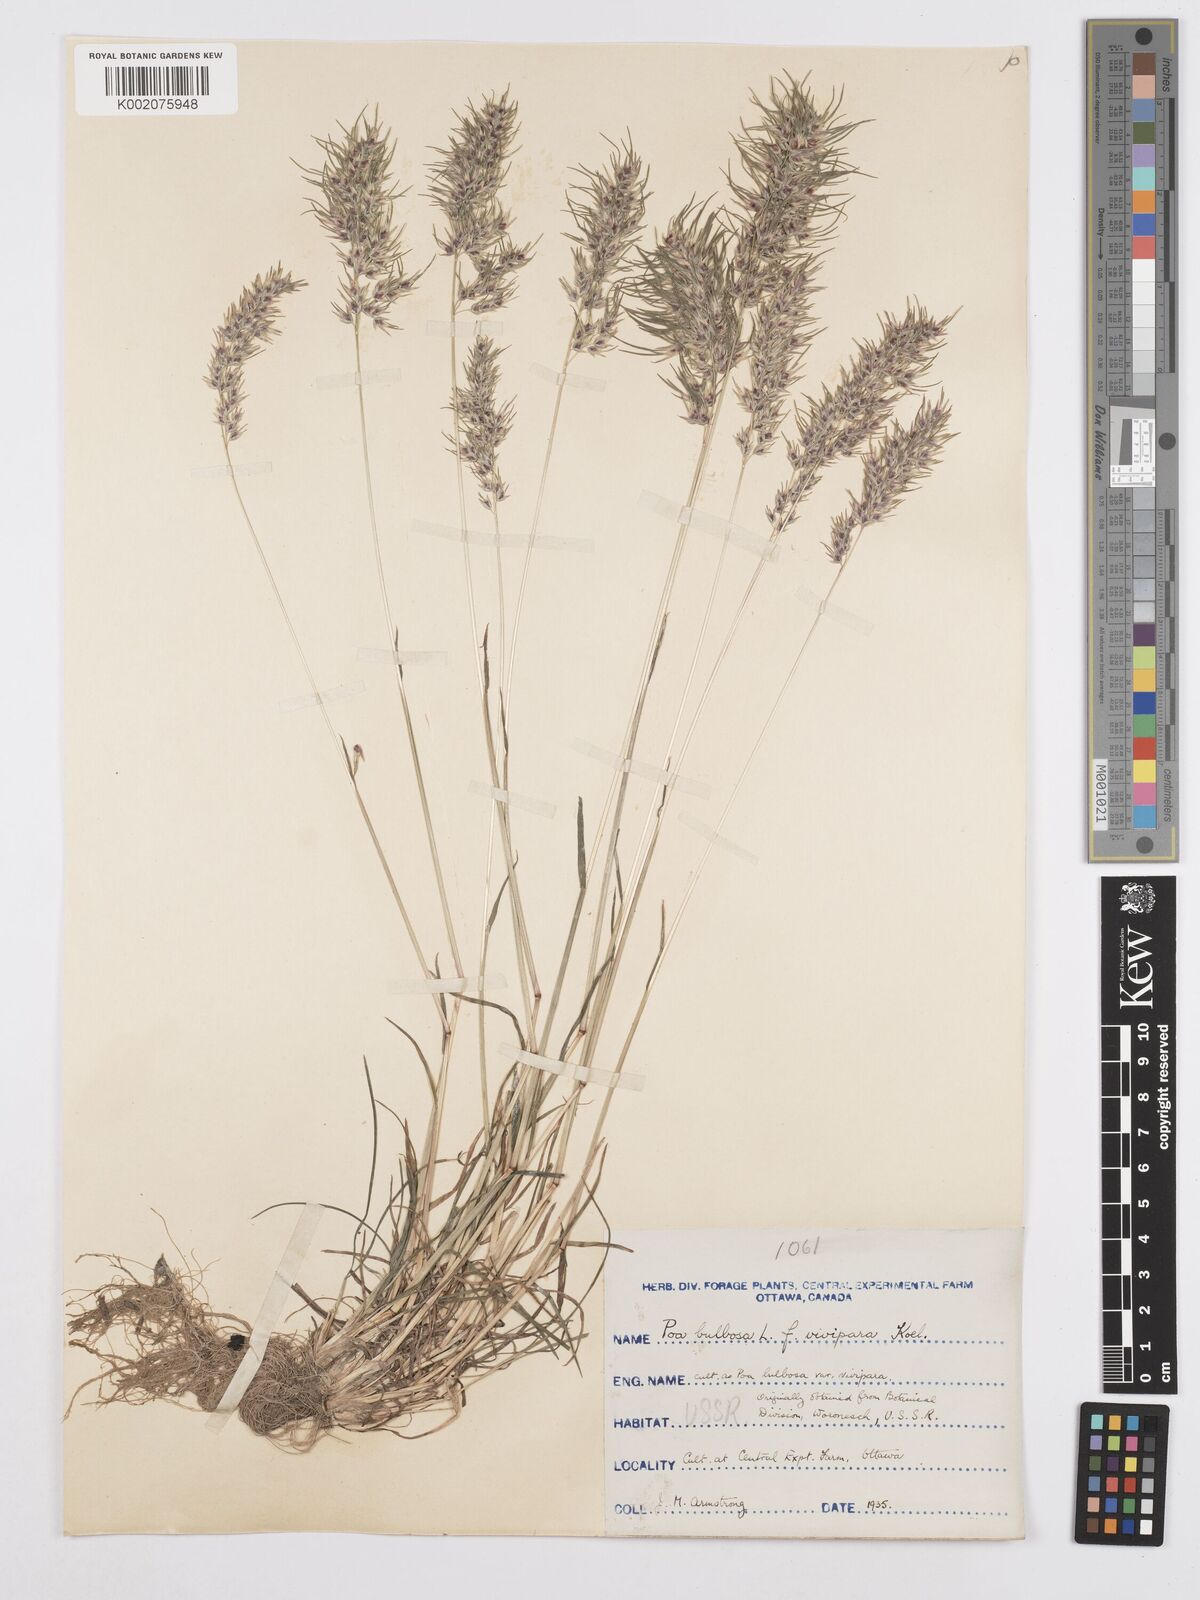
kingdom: Plantae
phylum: Tracheophyta
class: Liliopsida
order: Poales
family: Poaceae
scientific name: Poaceae
